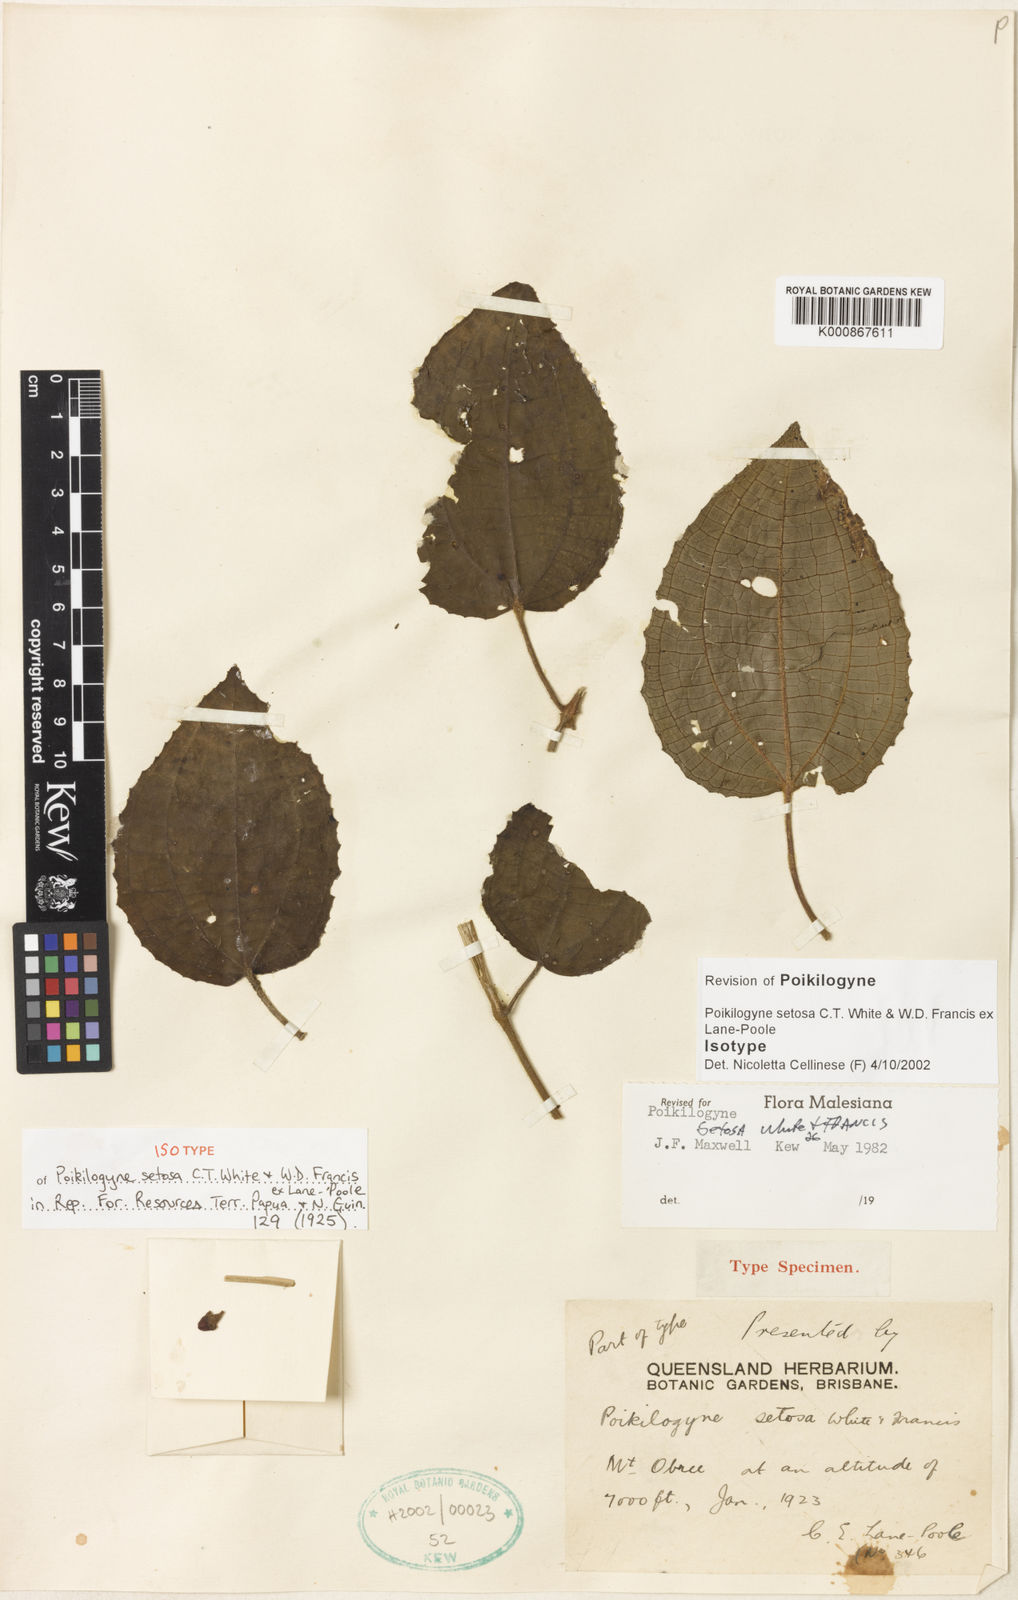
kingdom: Plantae
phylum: Tracheophyta
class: Magnoliopsida
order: Myrtales
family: Melastomataceae
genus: Poikilogyne
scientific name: Poikilogyne setosa
